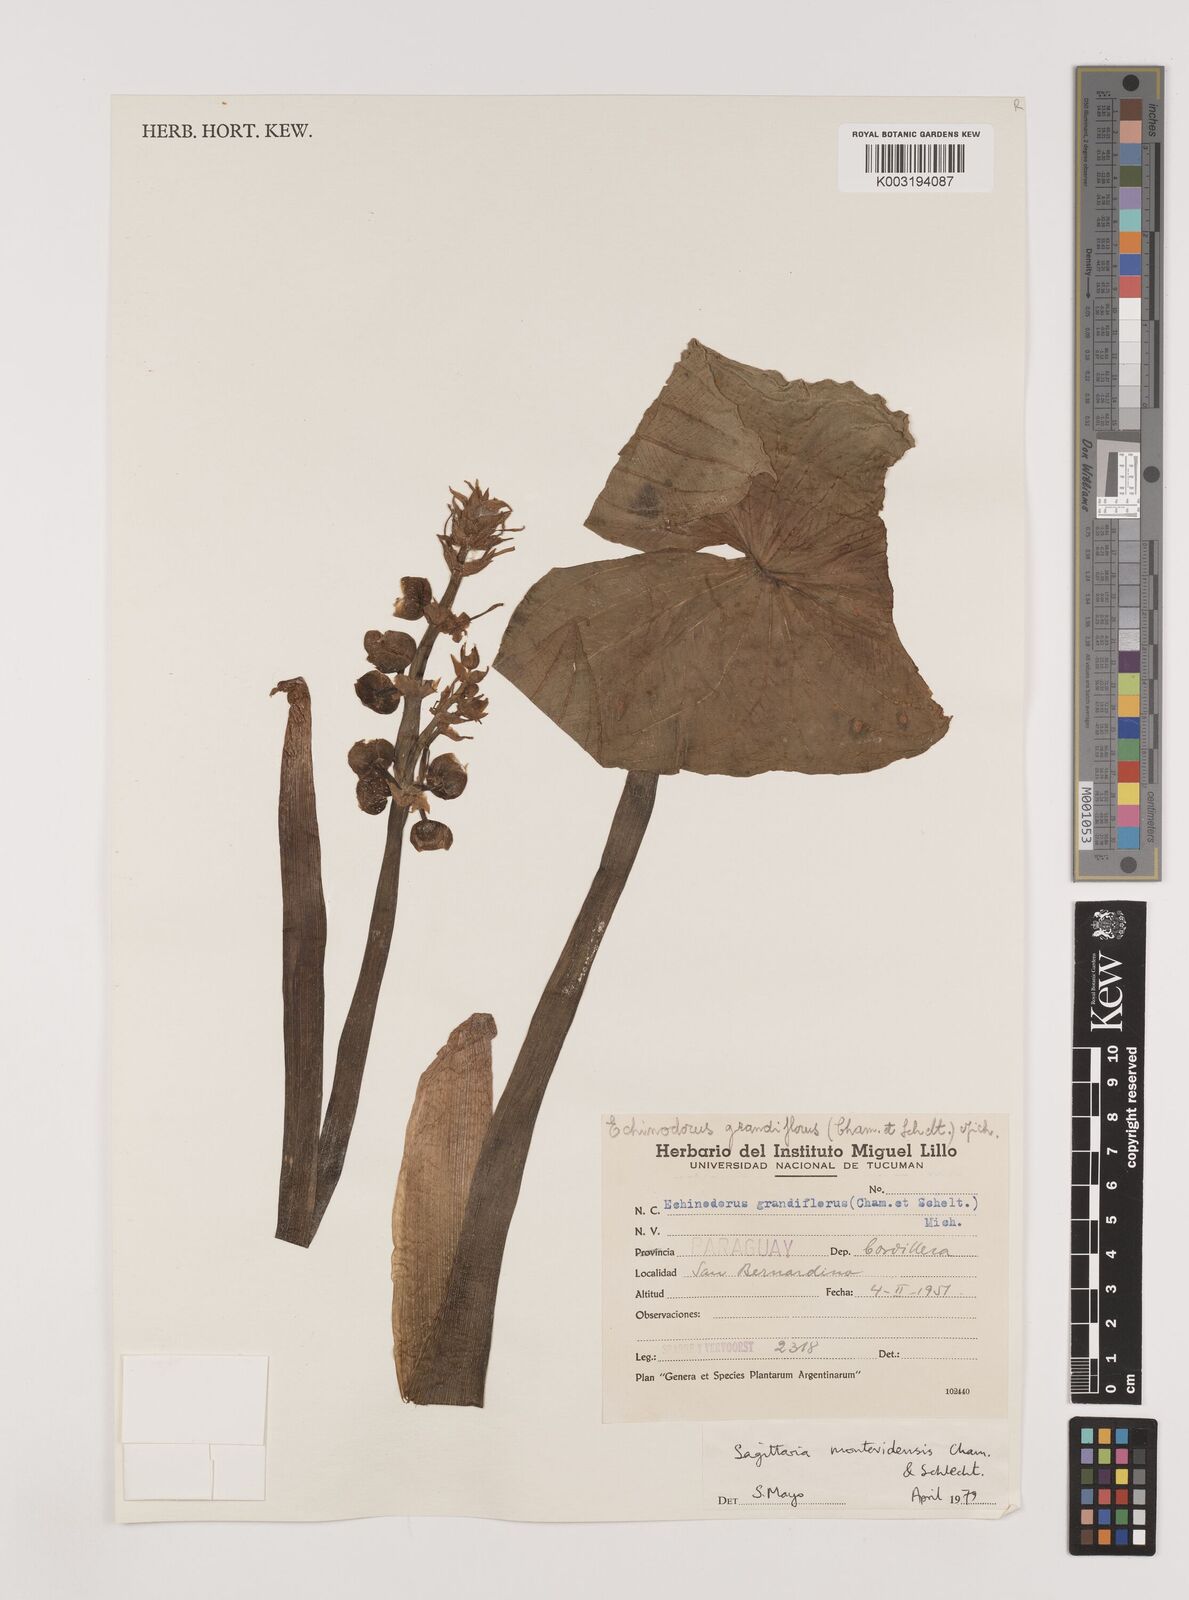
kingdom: Plantae
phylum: Tracheophyta
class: Liliopsida
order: Alismatales
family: Alismataceae
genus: Sagittaria
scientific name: Sagittaria montevidensis
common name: Giant arrowhead
